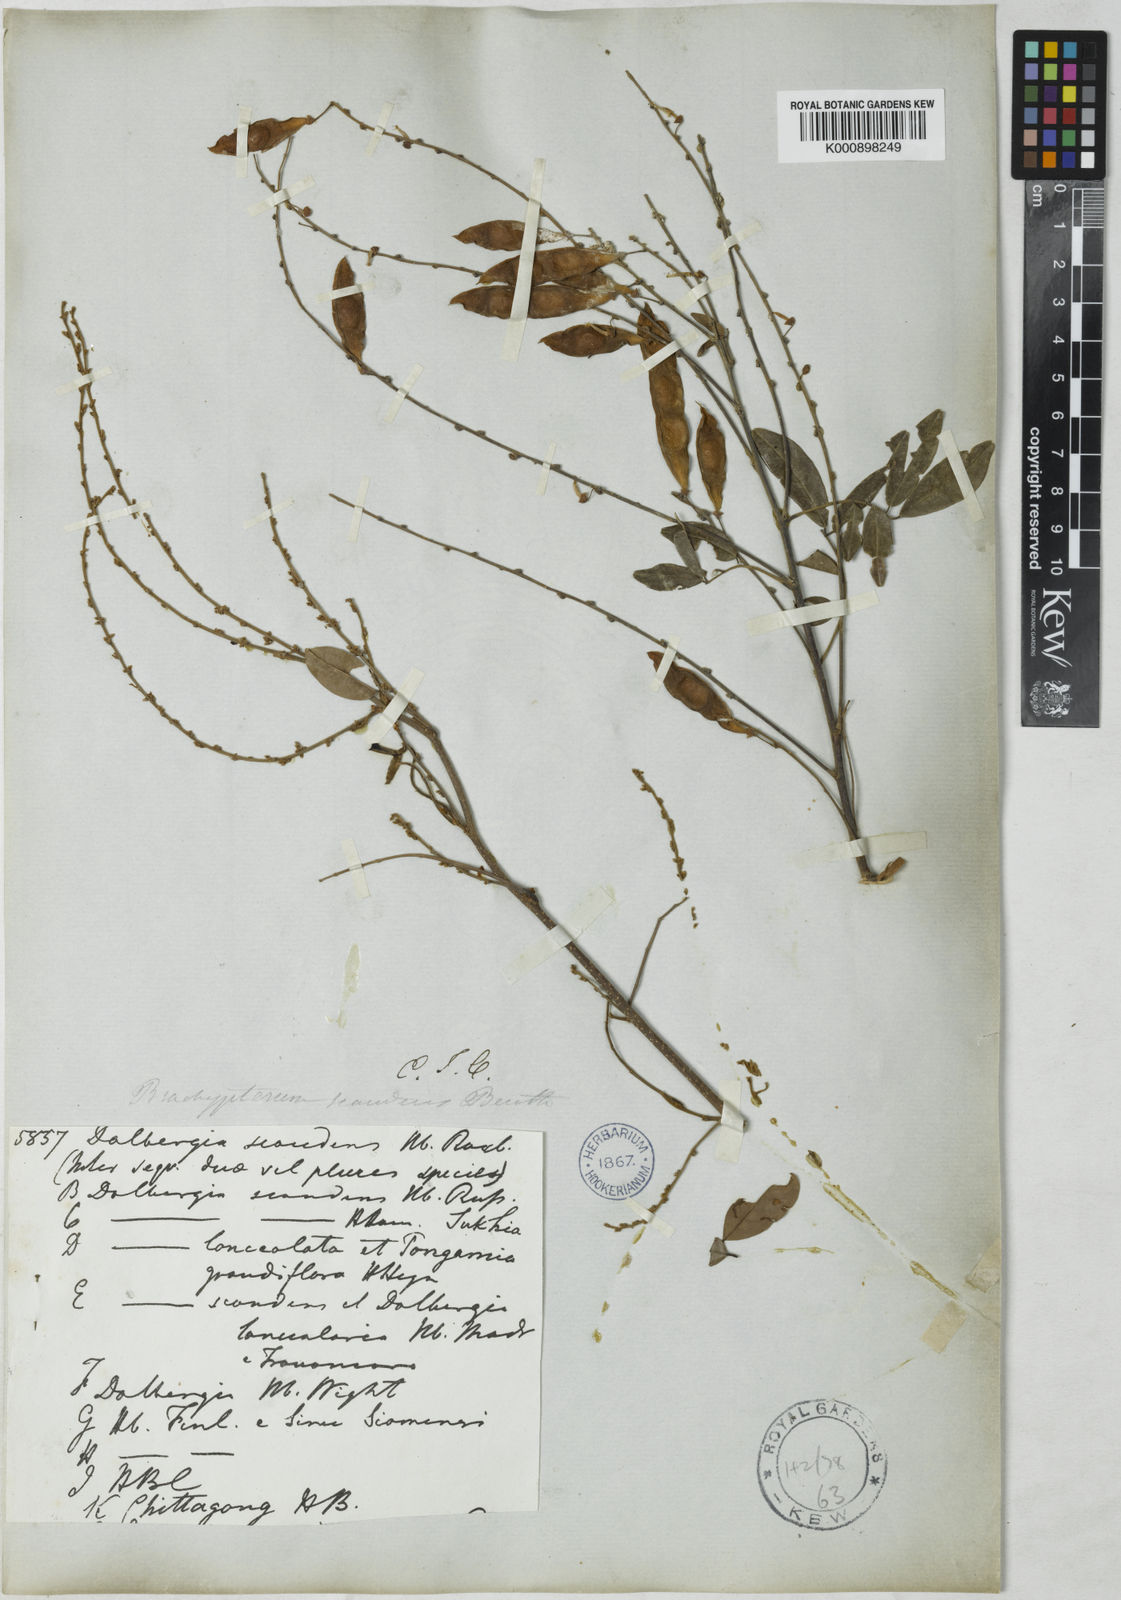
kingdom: Plantae
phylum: Tracheophyta
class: Magnoliopsida
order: Fabales
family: Fabaceae
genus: Brachypterum
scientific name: Brachypterum scandens
